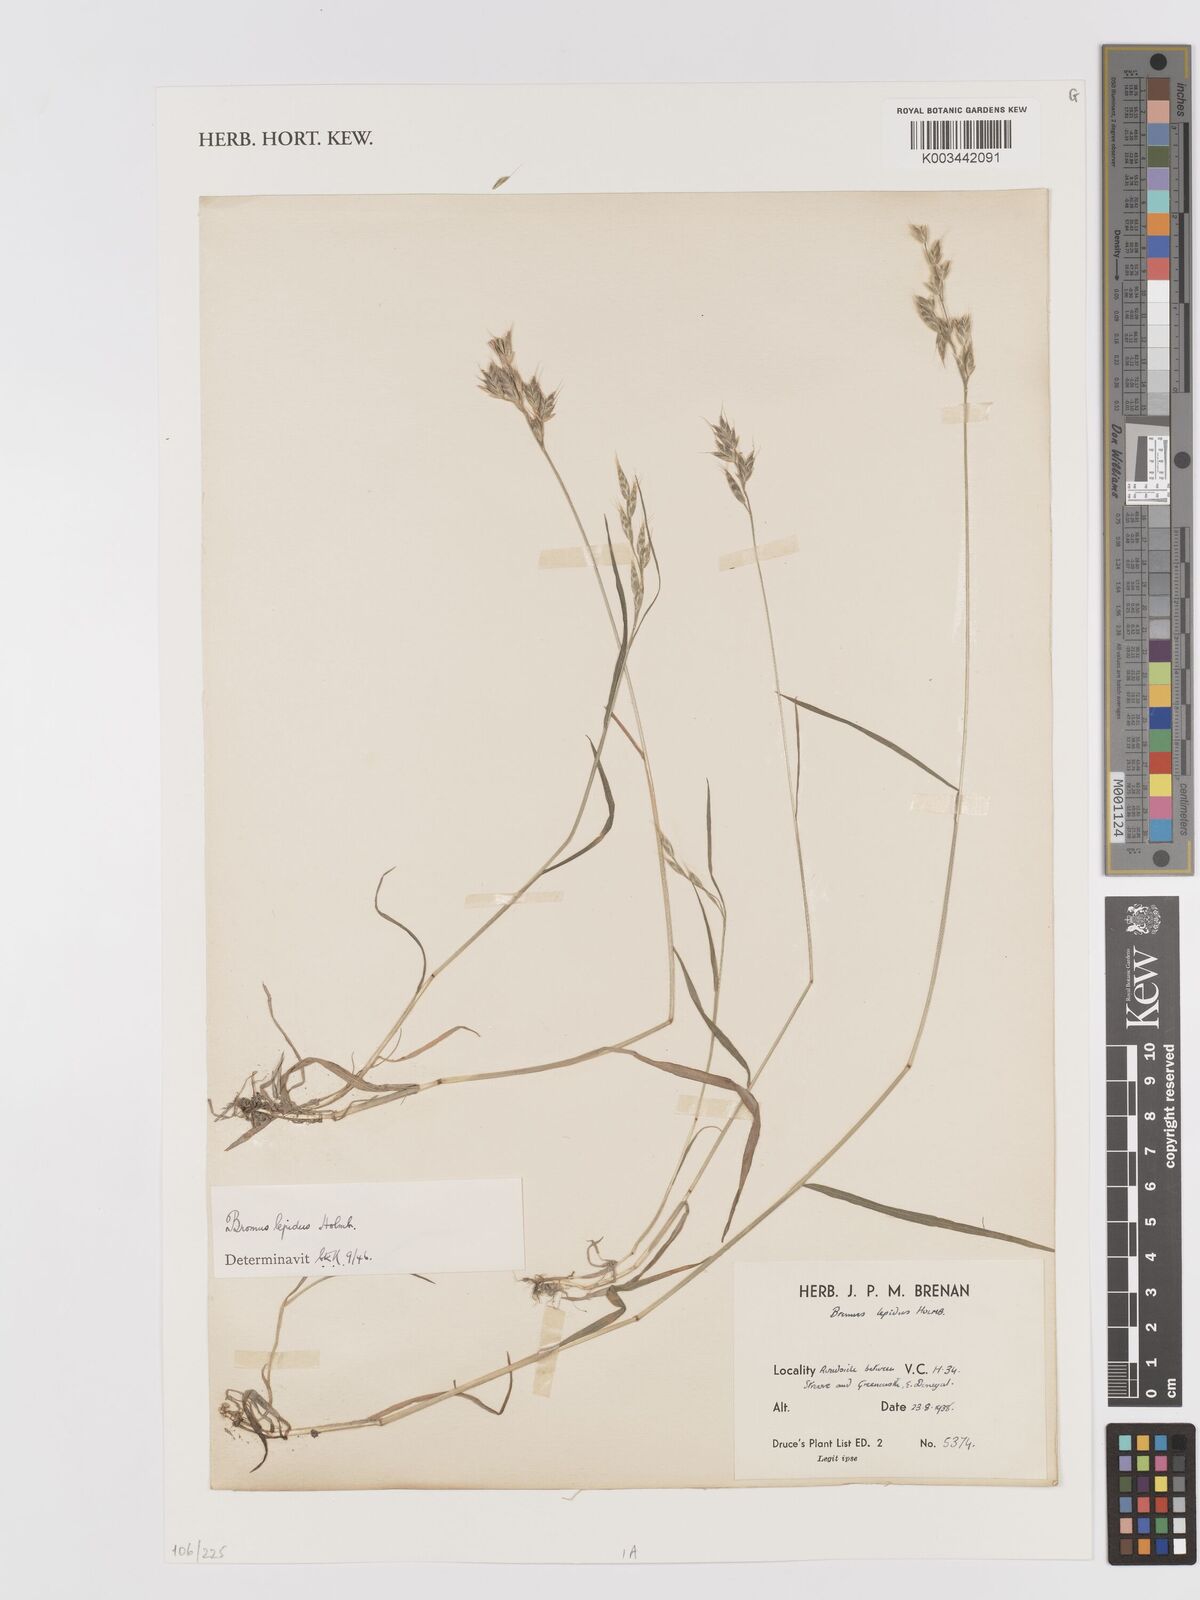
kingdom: Plantae
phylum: Tracheophyta
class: Liliopsida
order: Poales
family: Poaceae
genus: Bromus
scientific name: Bromus lepidus
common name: Slender soft-brome
